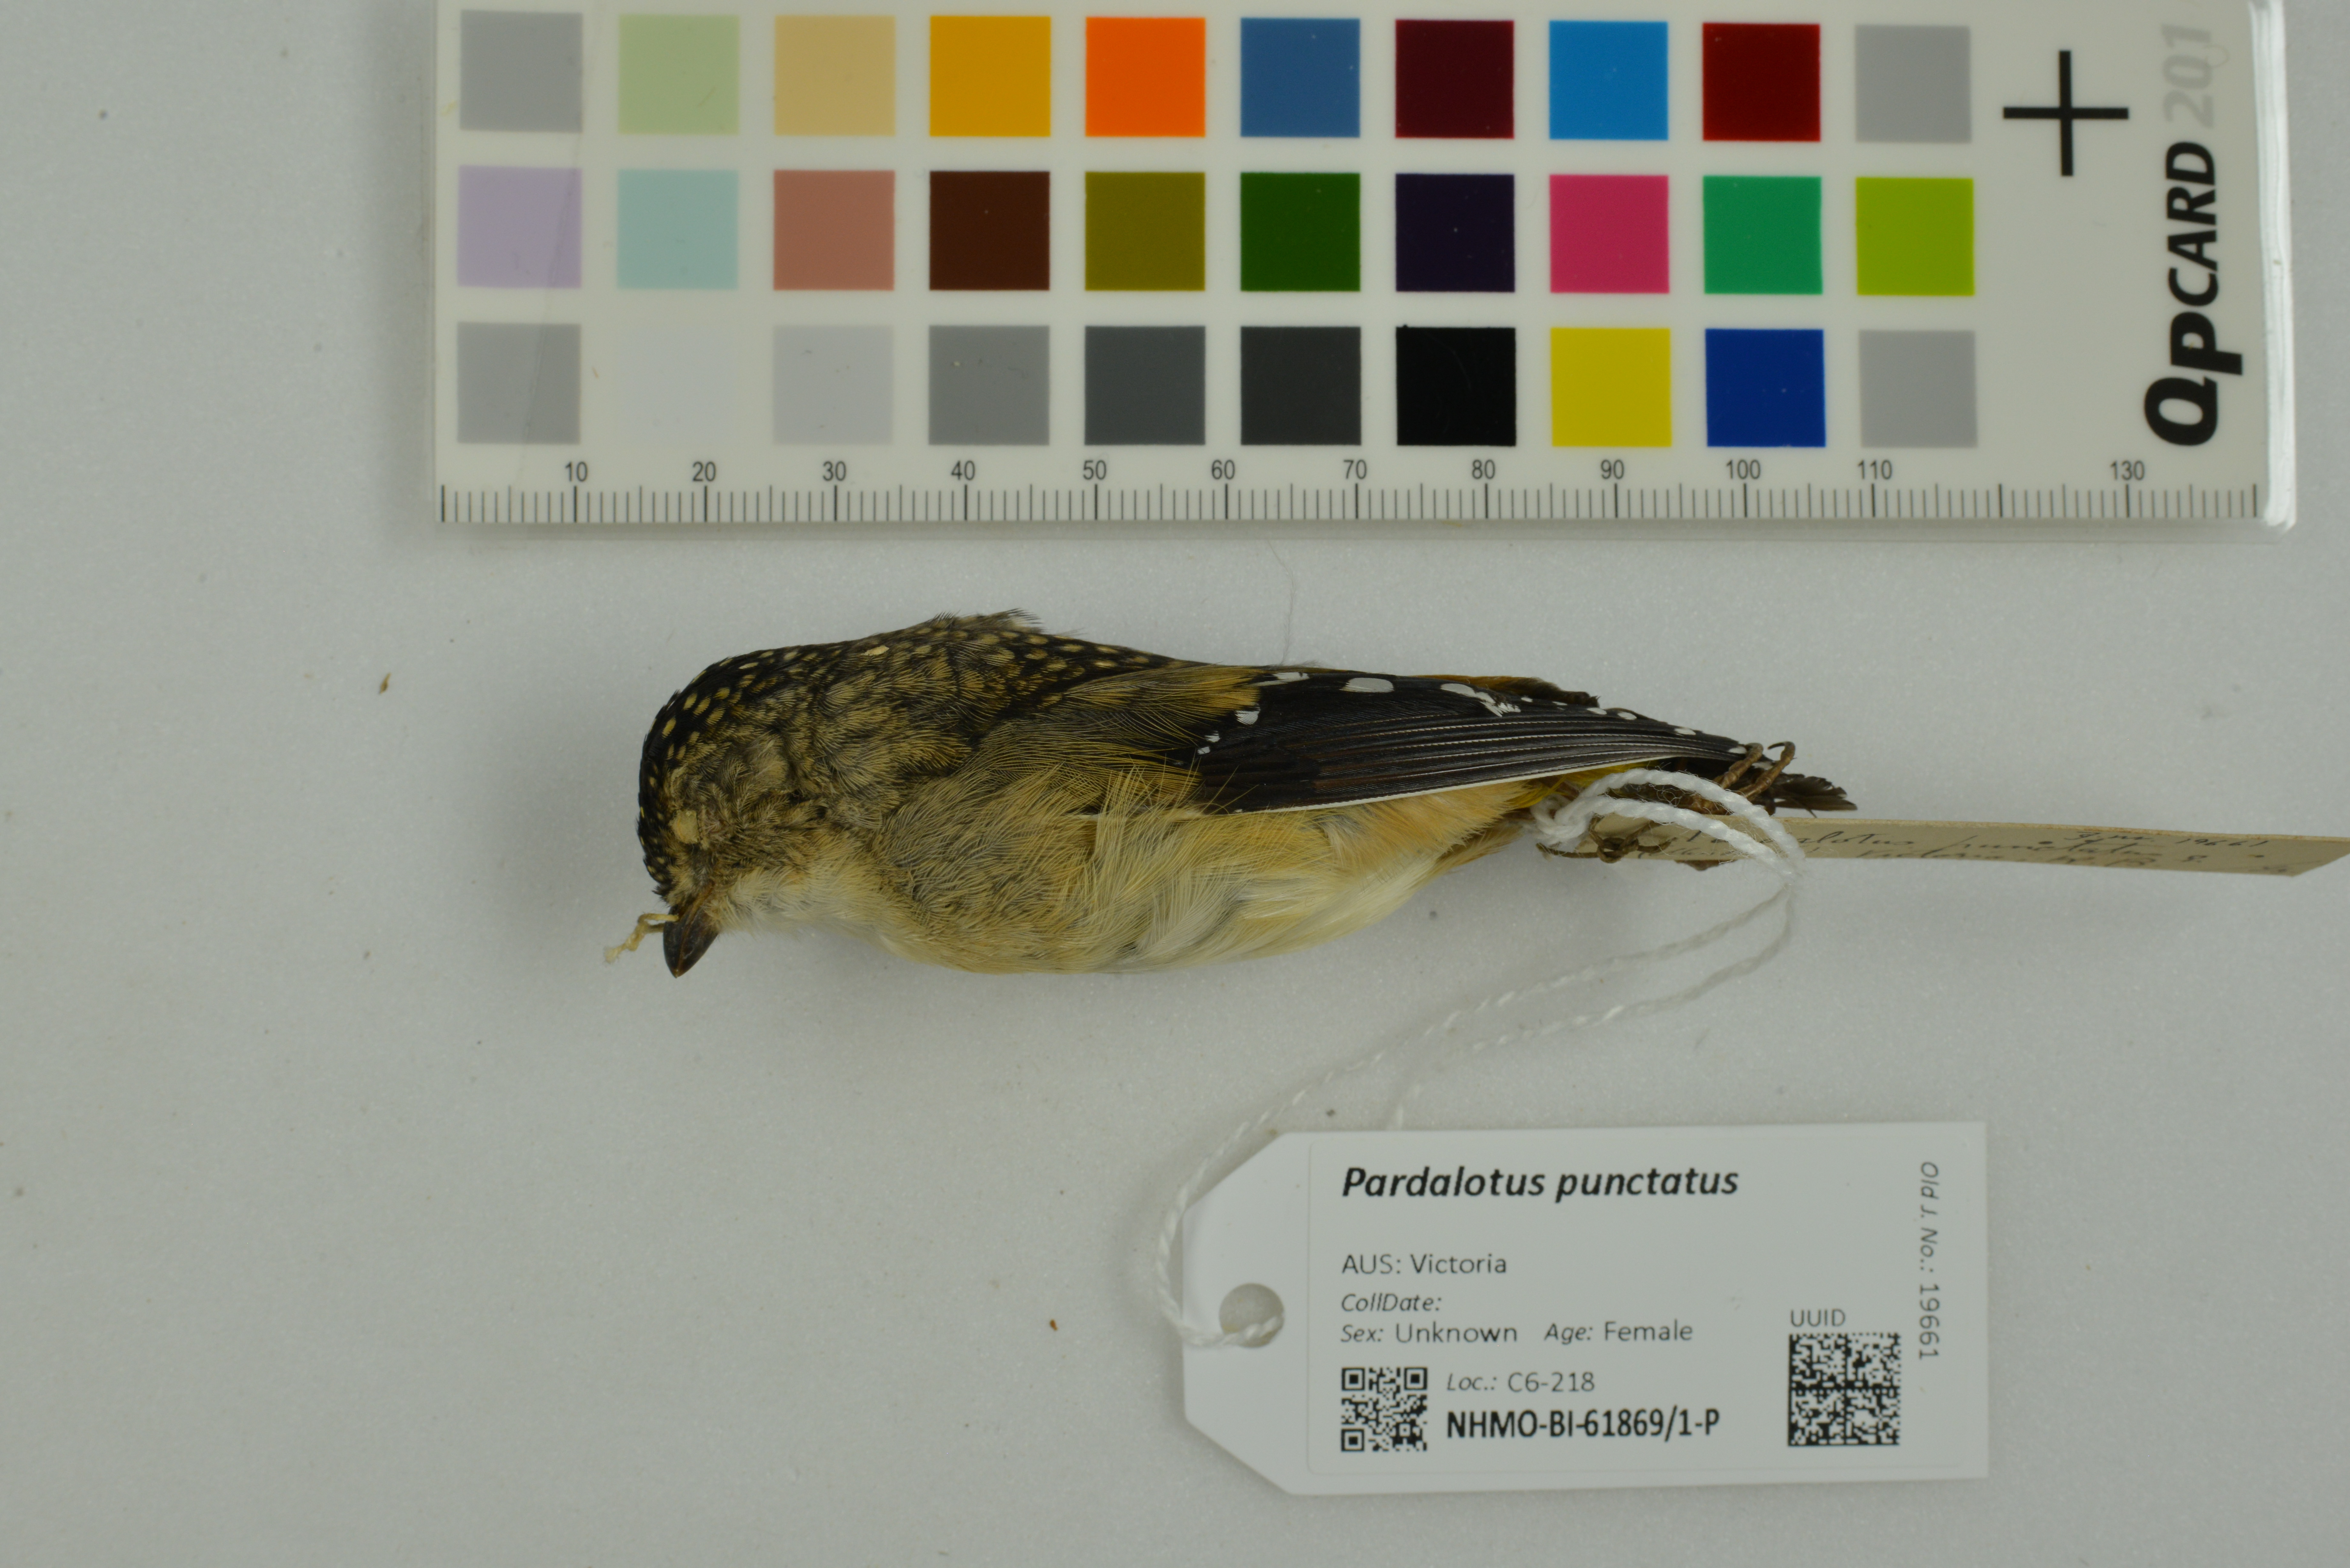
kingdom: Animalia
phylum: Chordata
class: Aves
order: Passeriformes
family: Pardalotidae
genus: Pardalotus
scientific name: Pardalotus punctatus
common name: Spotted pardalote
